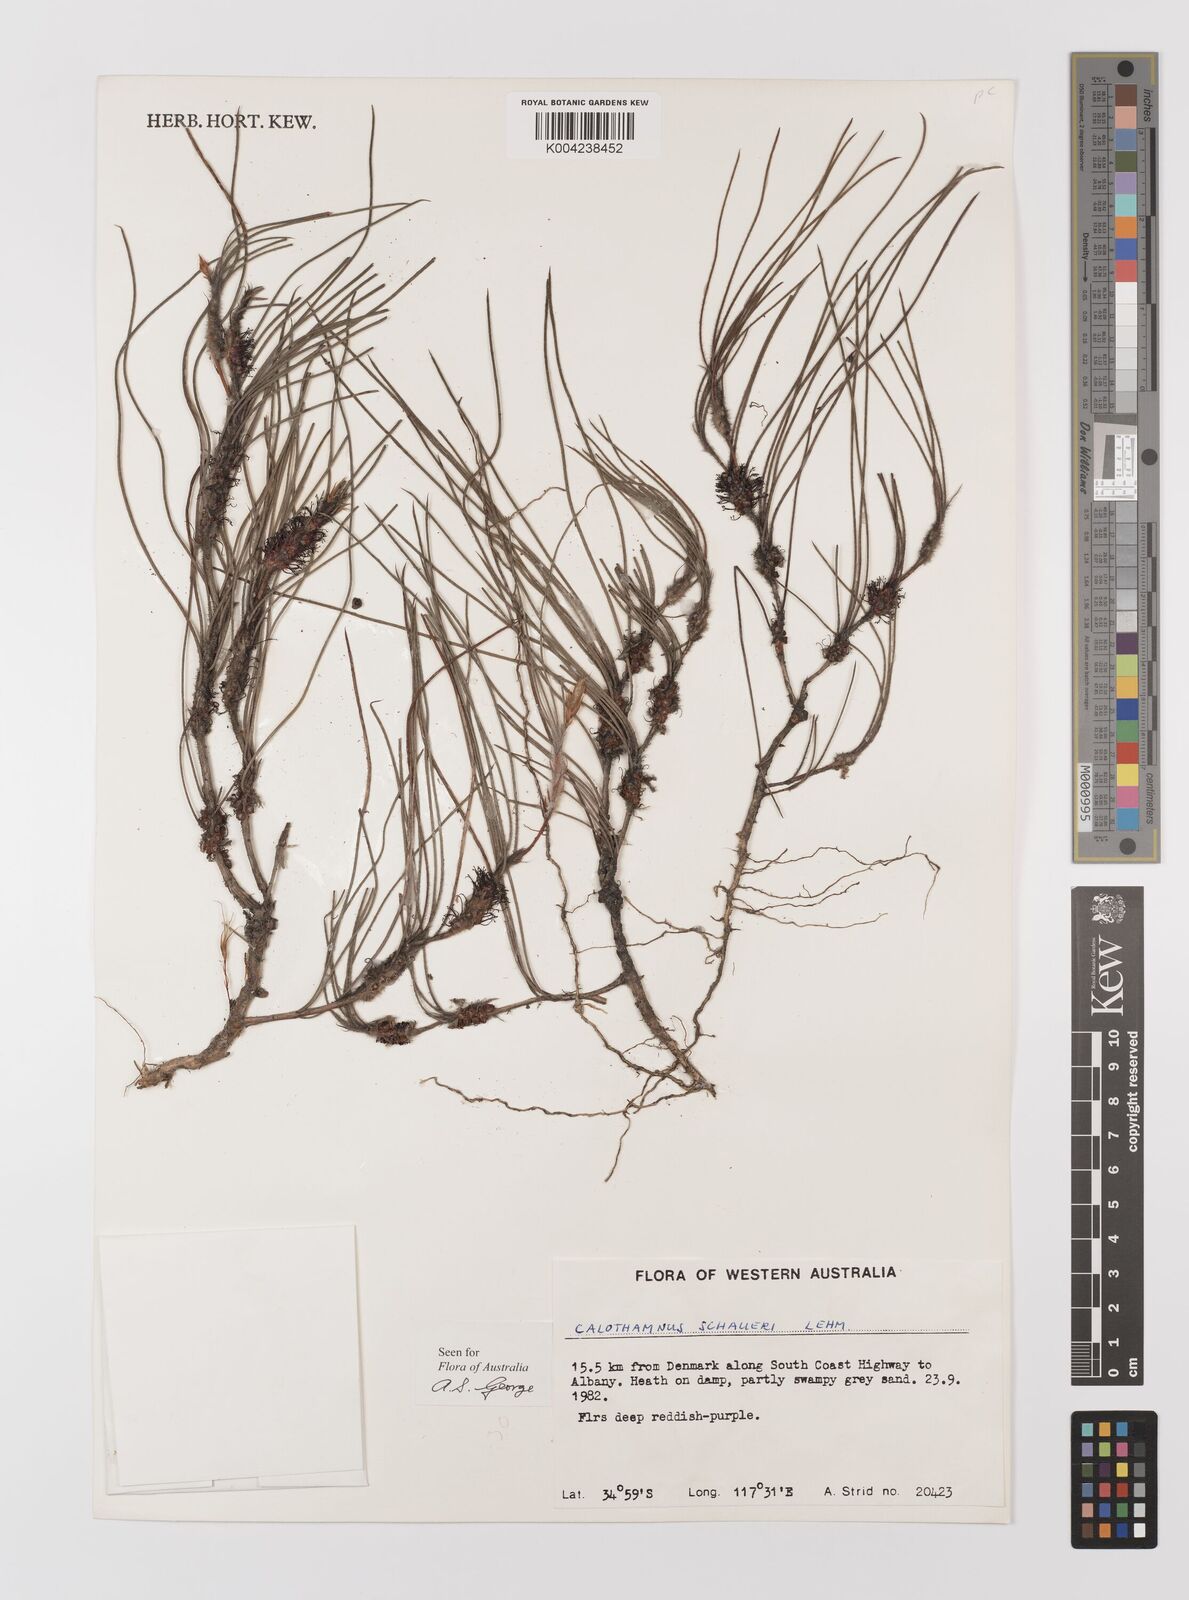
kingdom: Plantae
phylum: Tracheophyta
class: Magnoliopsida
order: Myrtales
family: Myrtaceae
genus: Melaleuca
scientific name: Melaleuca schaueri
